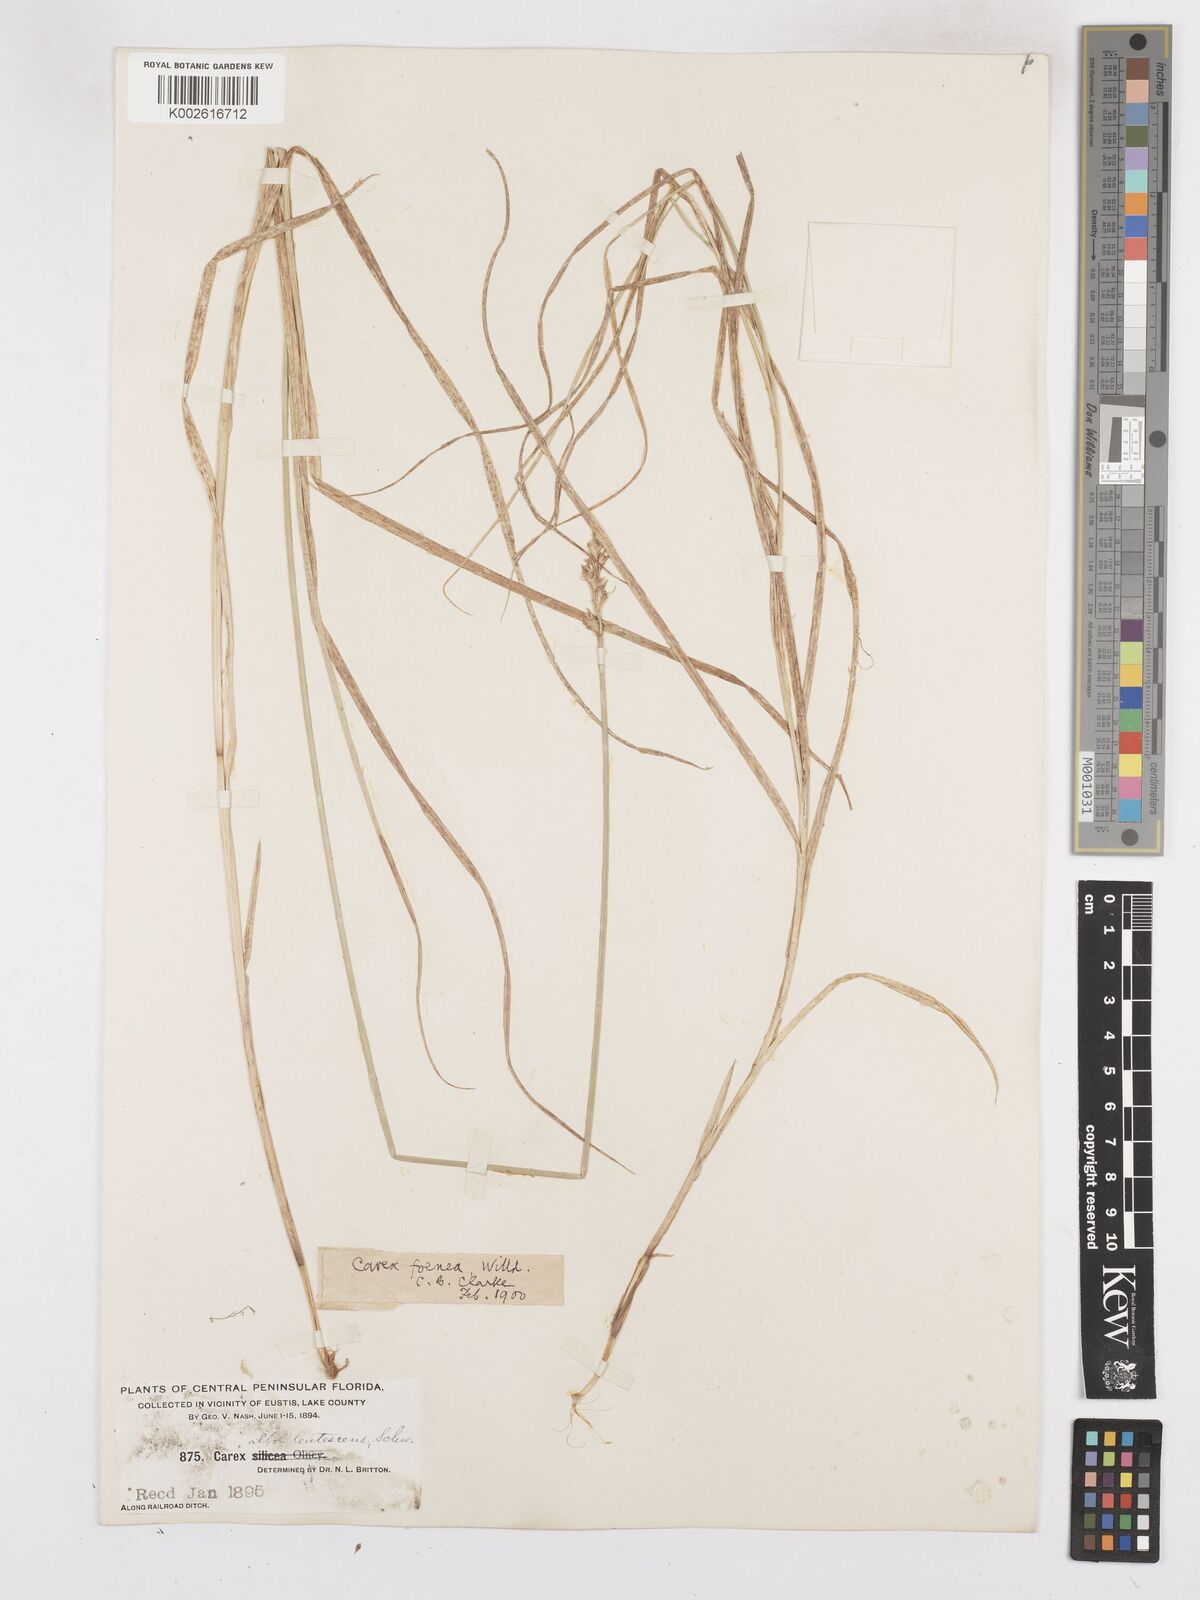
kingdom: Plantae
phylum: Tracheophyta
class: Liliopsida
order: Poales
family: Cyperaceae
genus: Carex
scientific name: Carex argyrantha
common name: Silvery-flowered sedge
